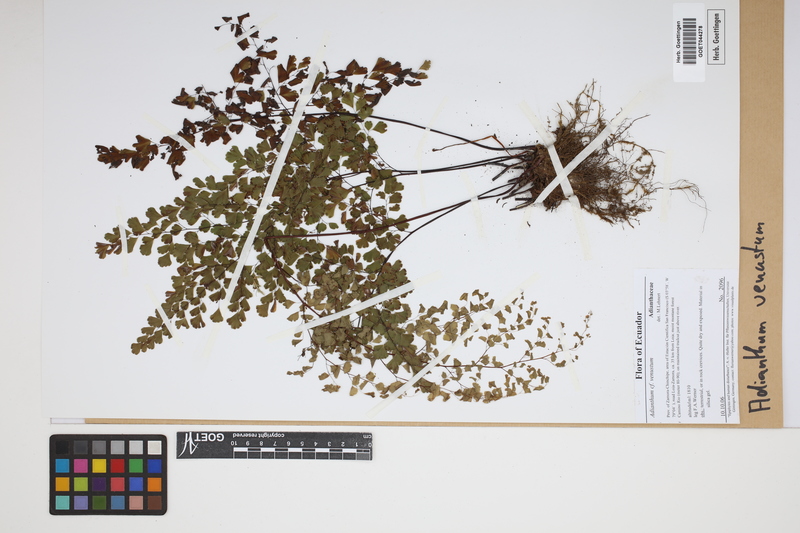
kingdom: Plantae
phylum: Tracheophyta
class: Polypodiopsida
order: Polypodiales
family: Pteridaceae
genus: Adiantum
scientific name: Adiantum venustum
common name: Evergreen maidenhair
